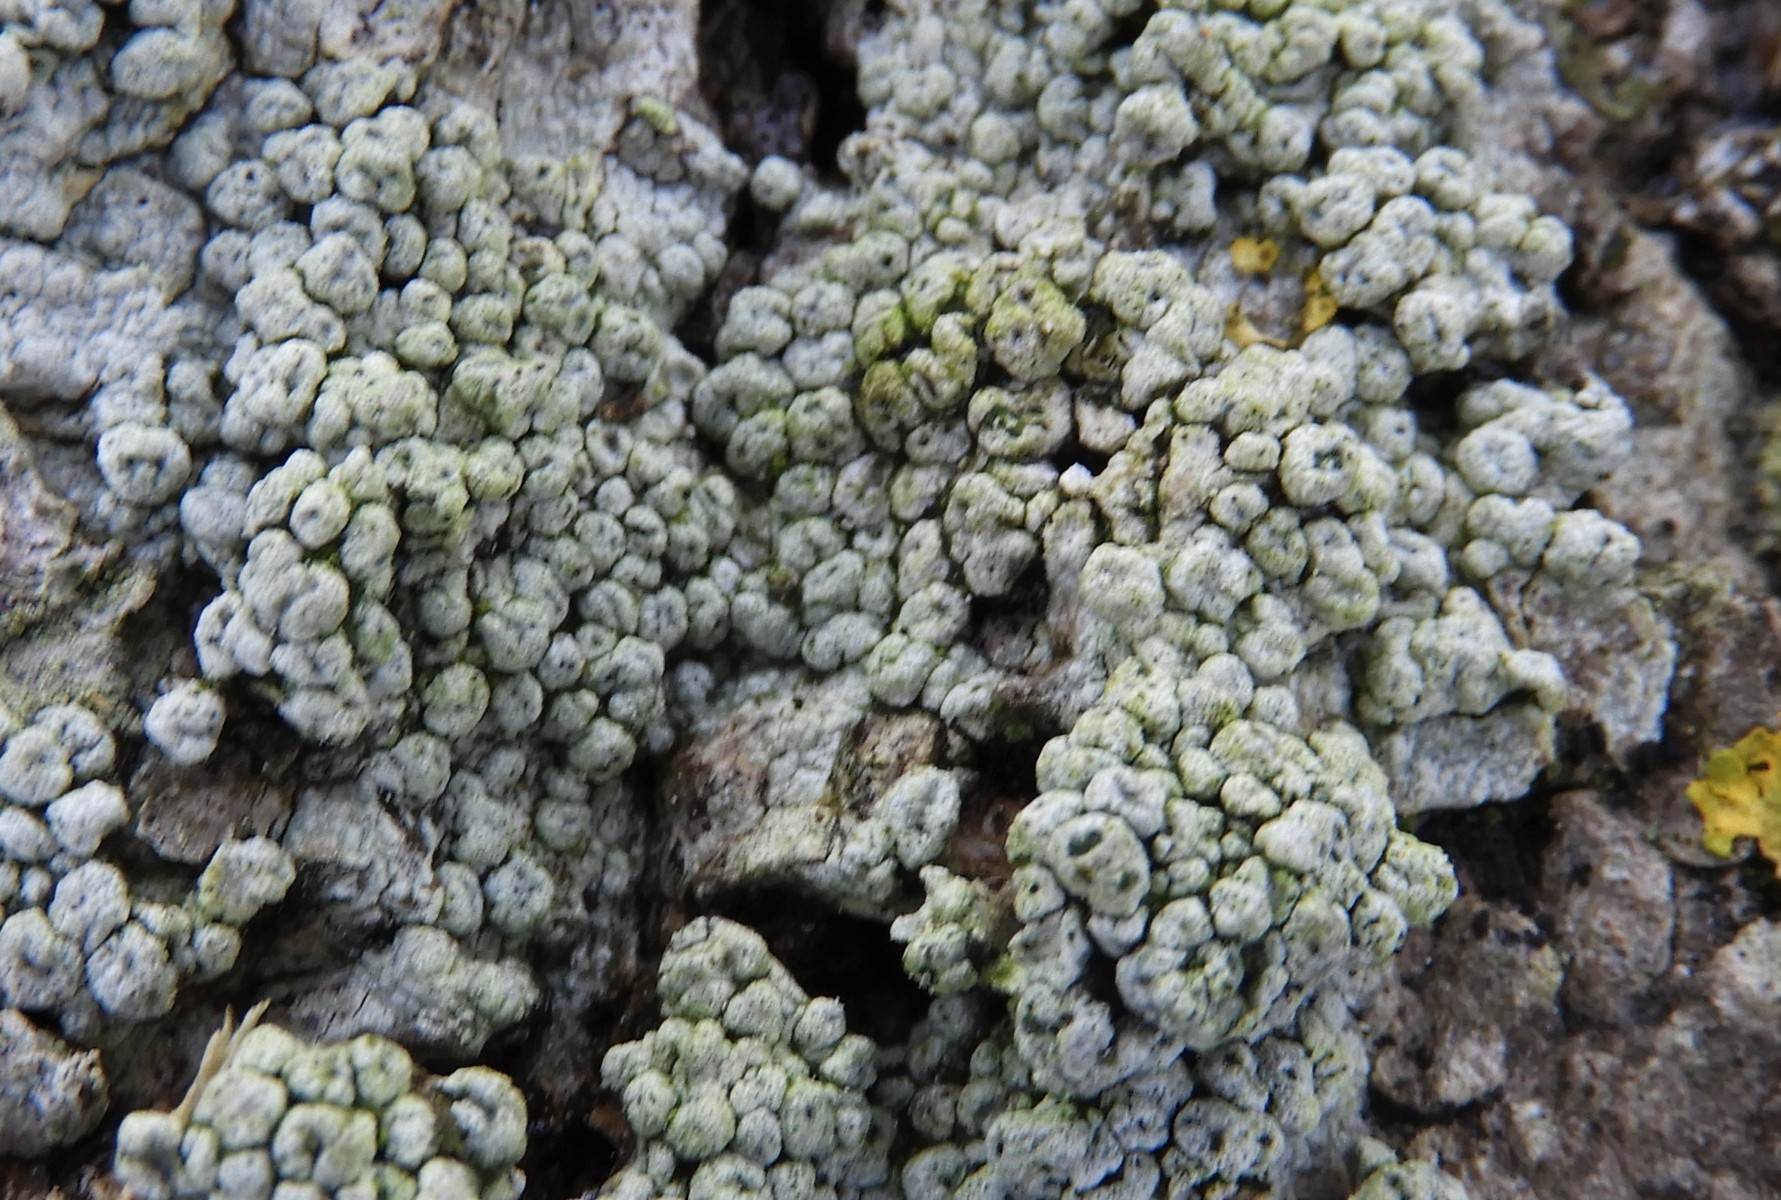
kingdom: Fungi
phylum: Ascomycota
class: Lecanoromycetes
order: Pertusariales
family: Pertusariaceae
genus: Pertusaria
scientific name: Pertusaria pertusa
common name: almindelig prikvortelav
